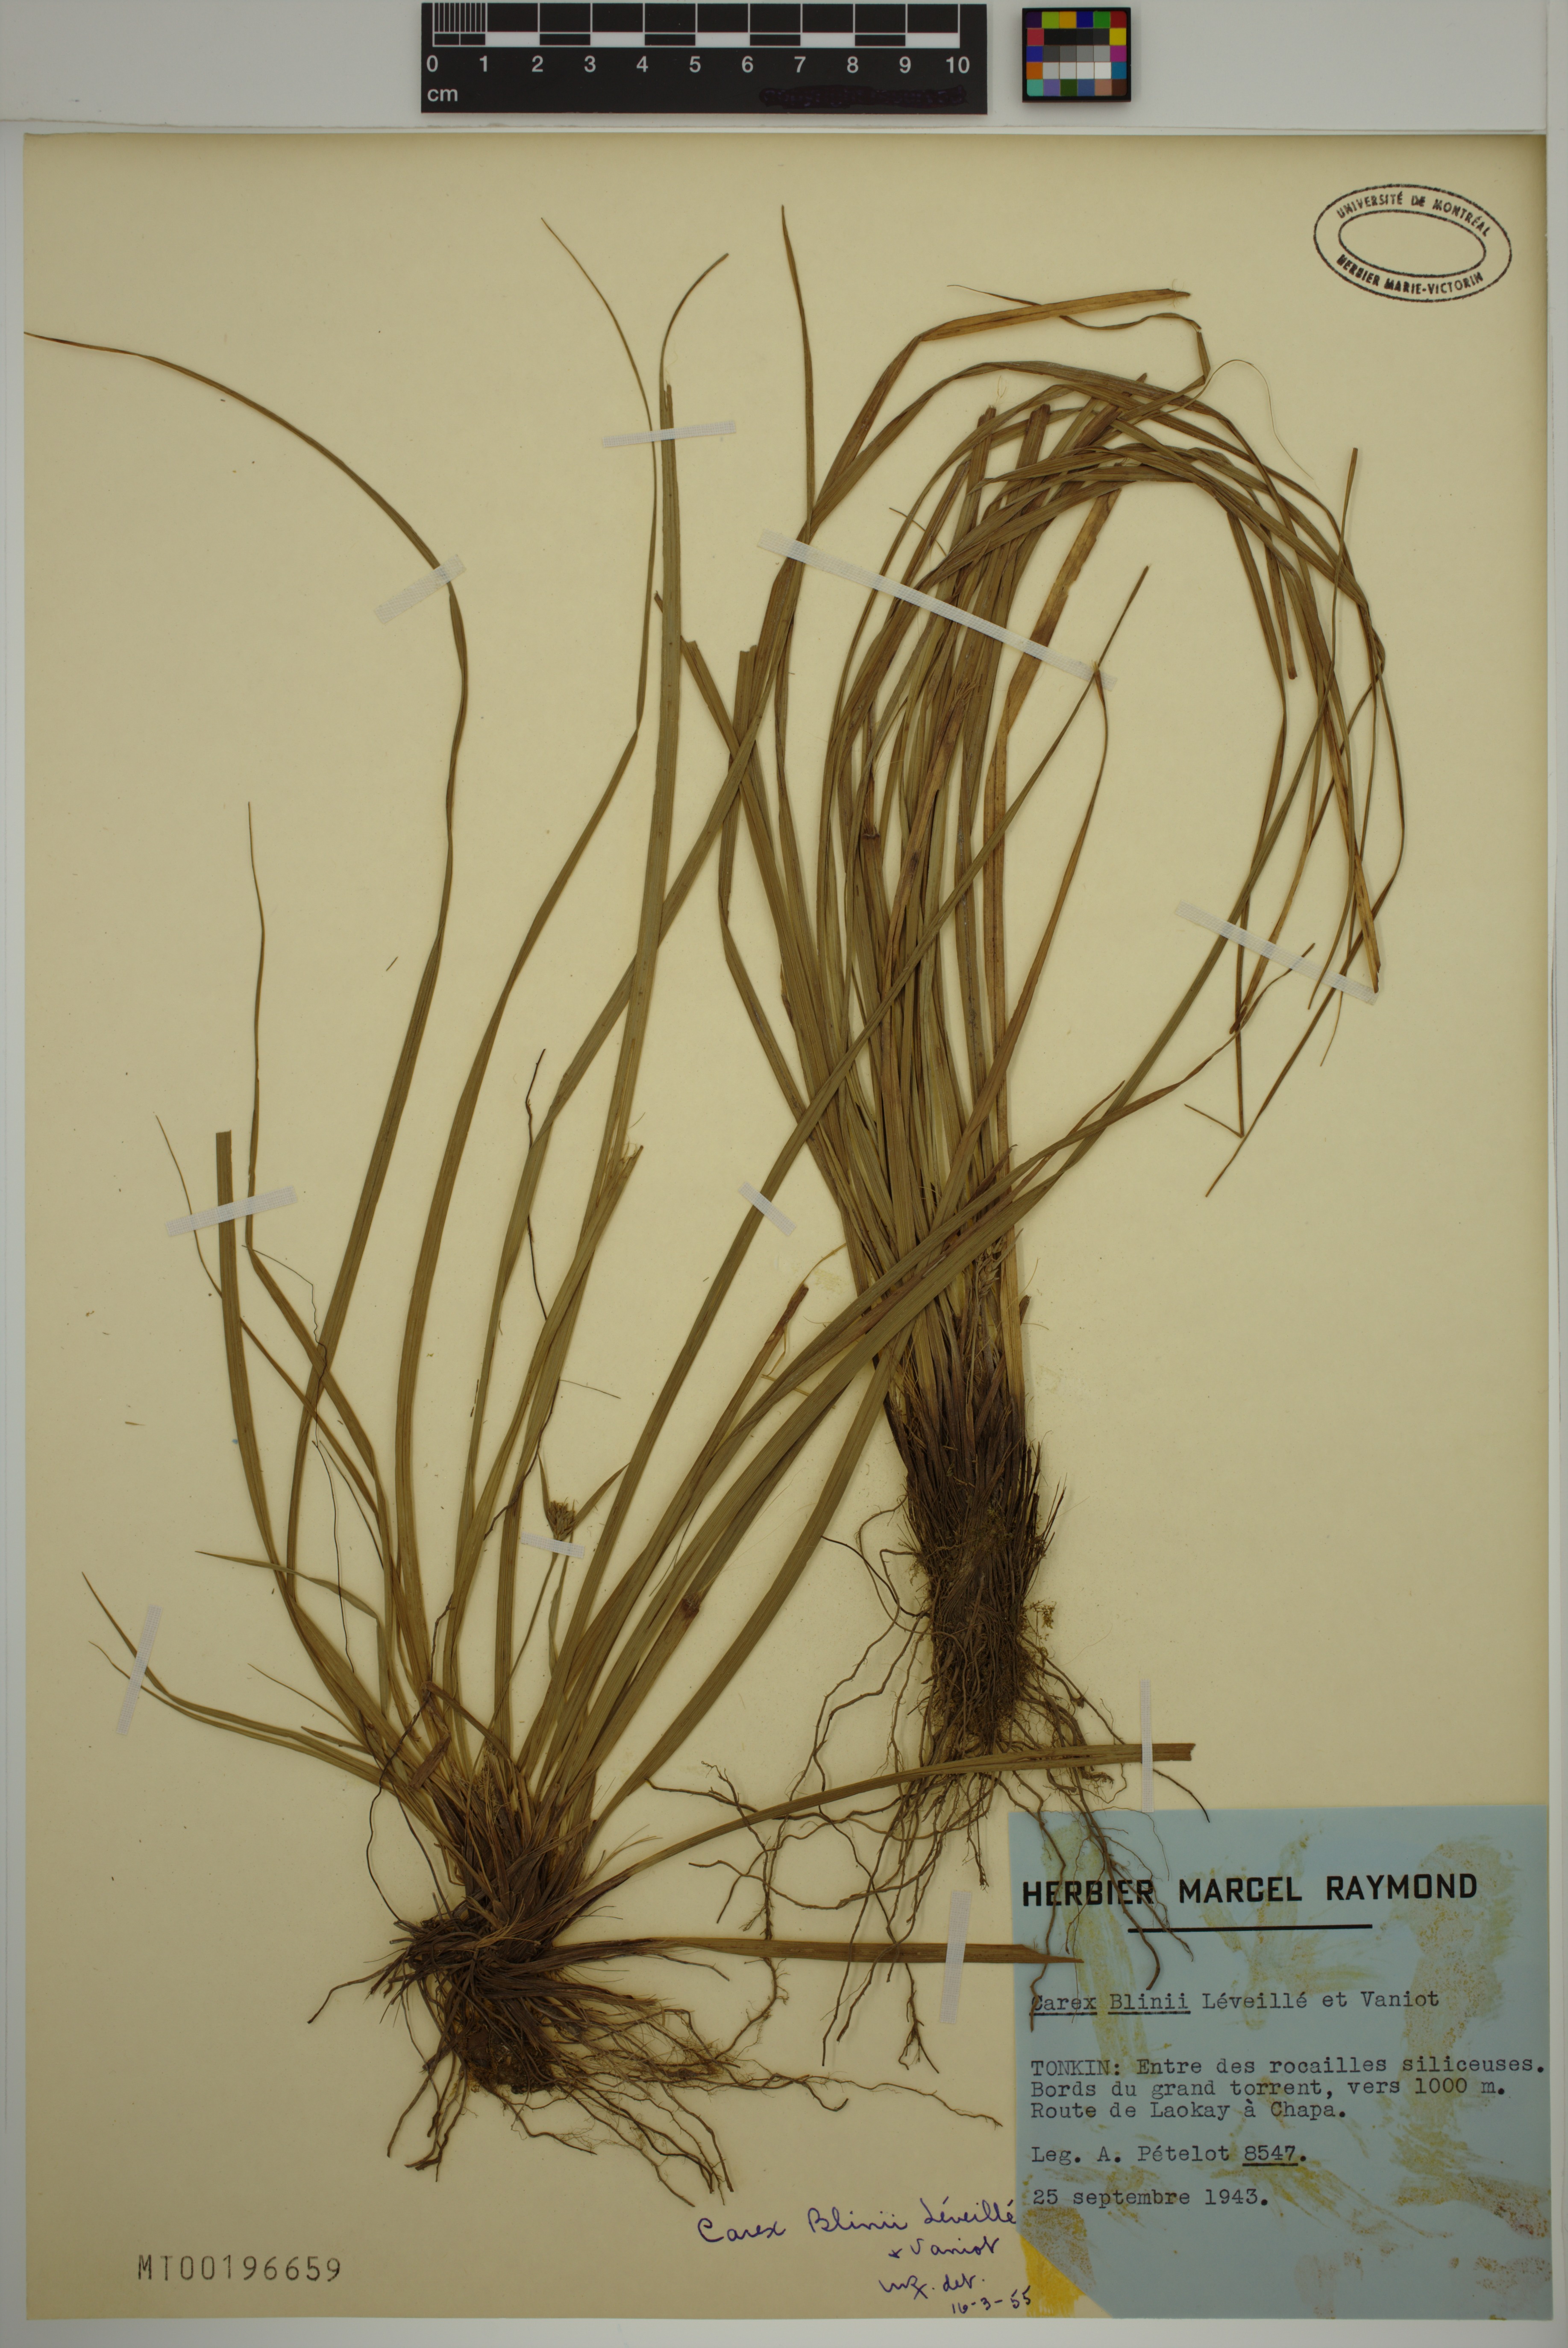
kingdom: Plantae
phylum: Tracheophyta
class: Liliopsida
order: Poales
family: Cyperaceae
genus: Carex
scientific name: Carex blinii
